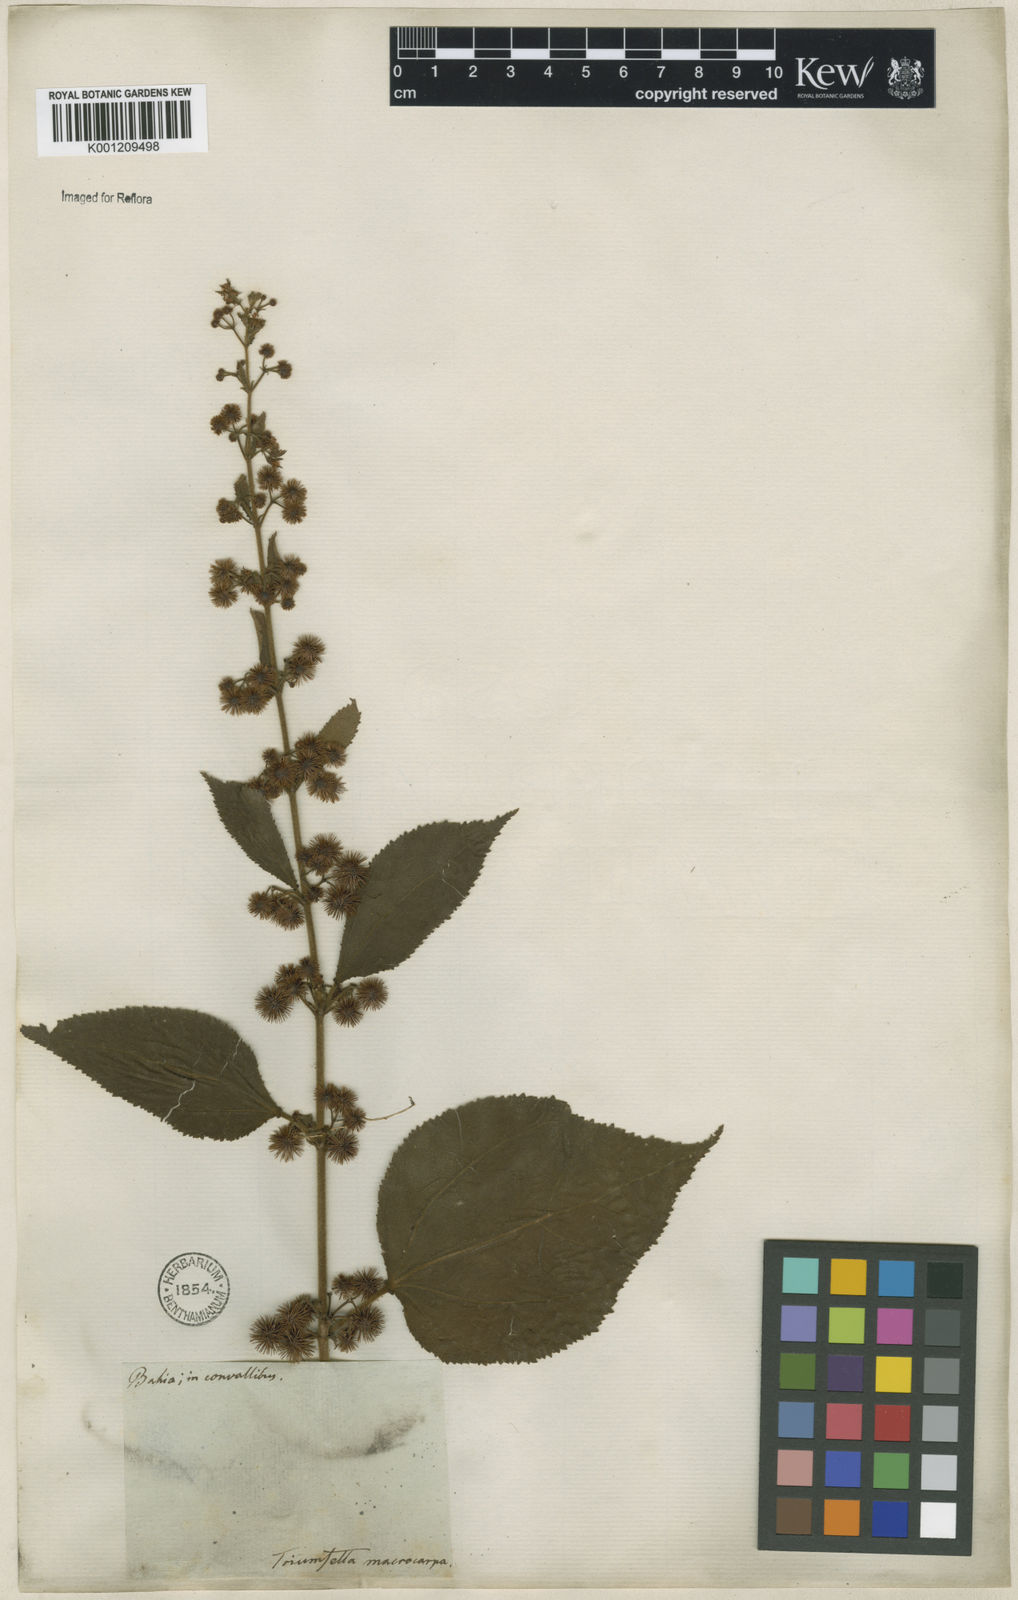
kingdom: Plantae
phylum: Tracheophyta
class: Magnoliopsida
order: Malvales
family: Malvaceae
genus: Triumfetta
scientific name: Triumfetta althaeoides
